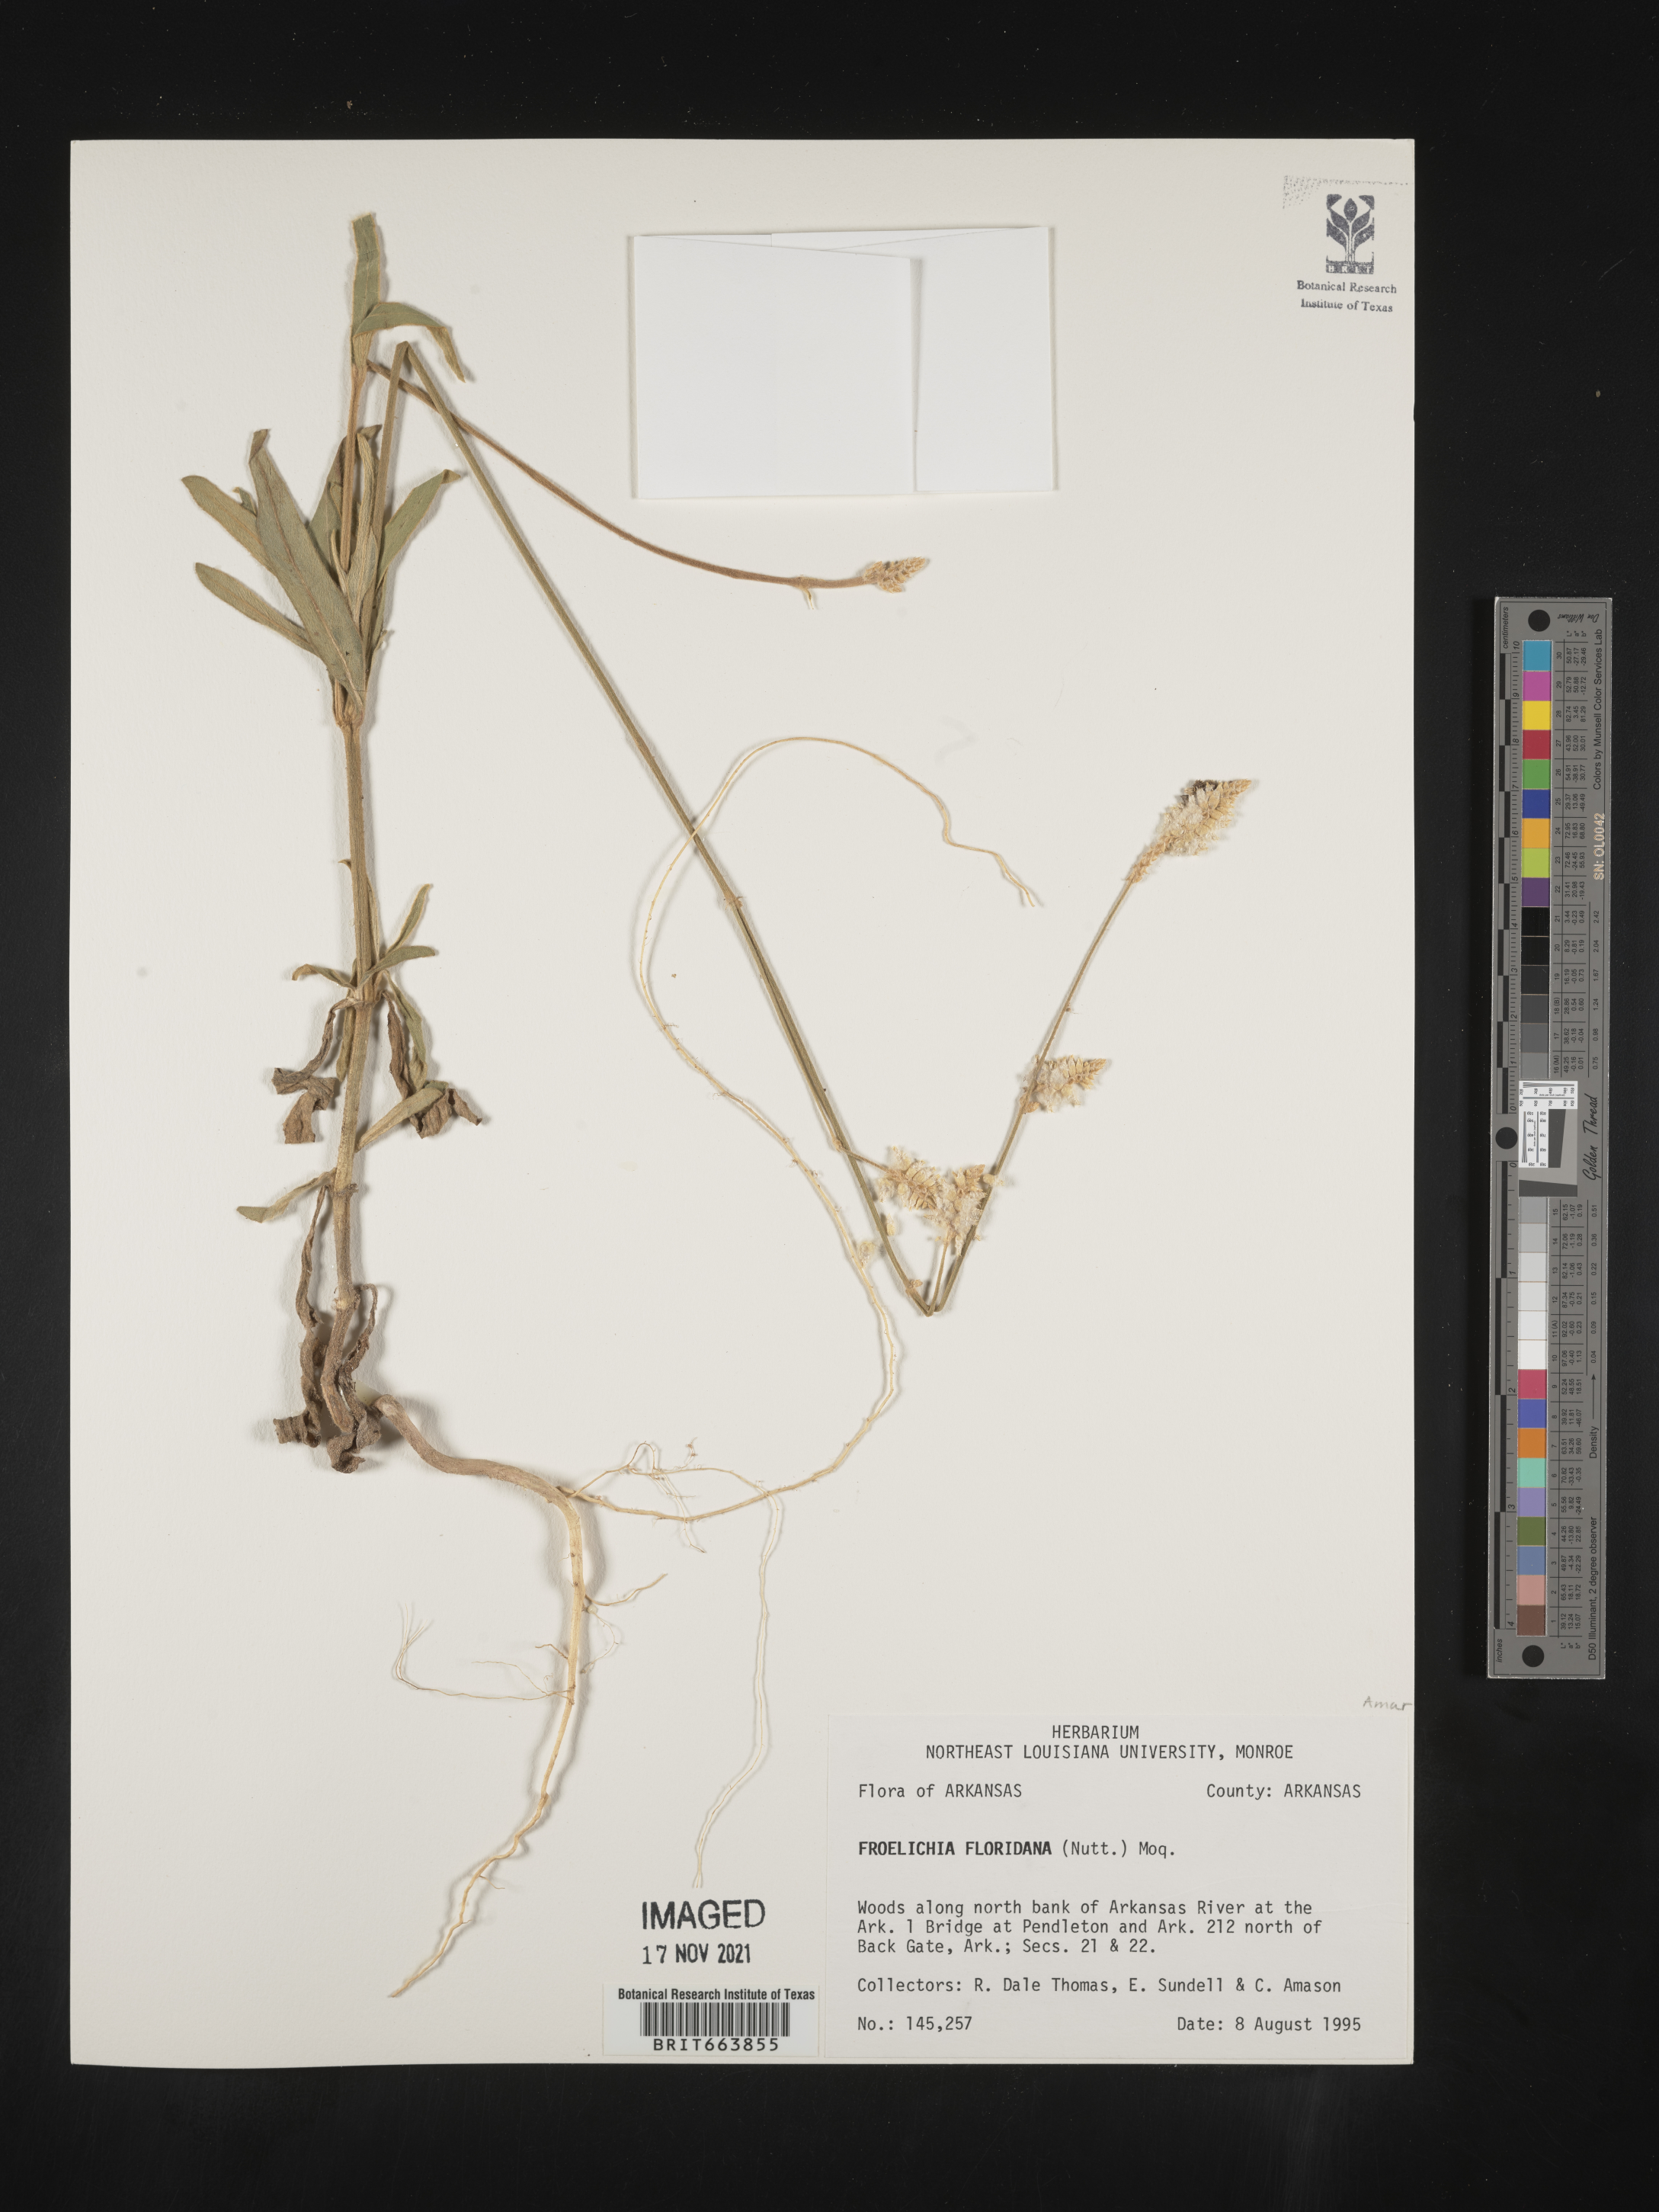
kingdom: Plantae
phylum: Tracheophyta
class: Magnoliopsida
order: Caryophyllales
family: Amaranthaceae
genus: Froelichia
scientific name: Froelichia floridana
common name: Florida snake-cotton
